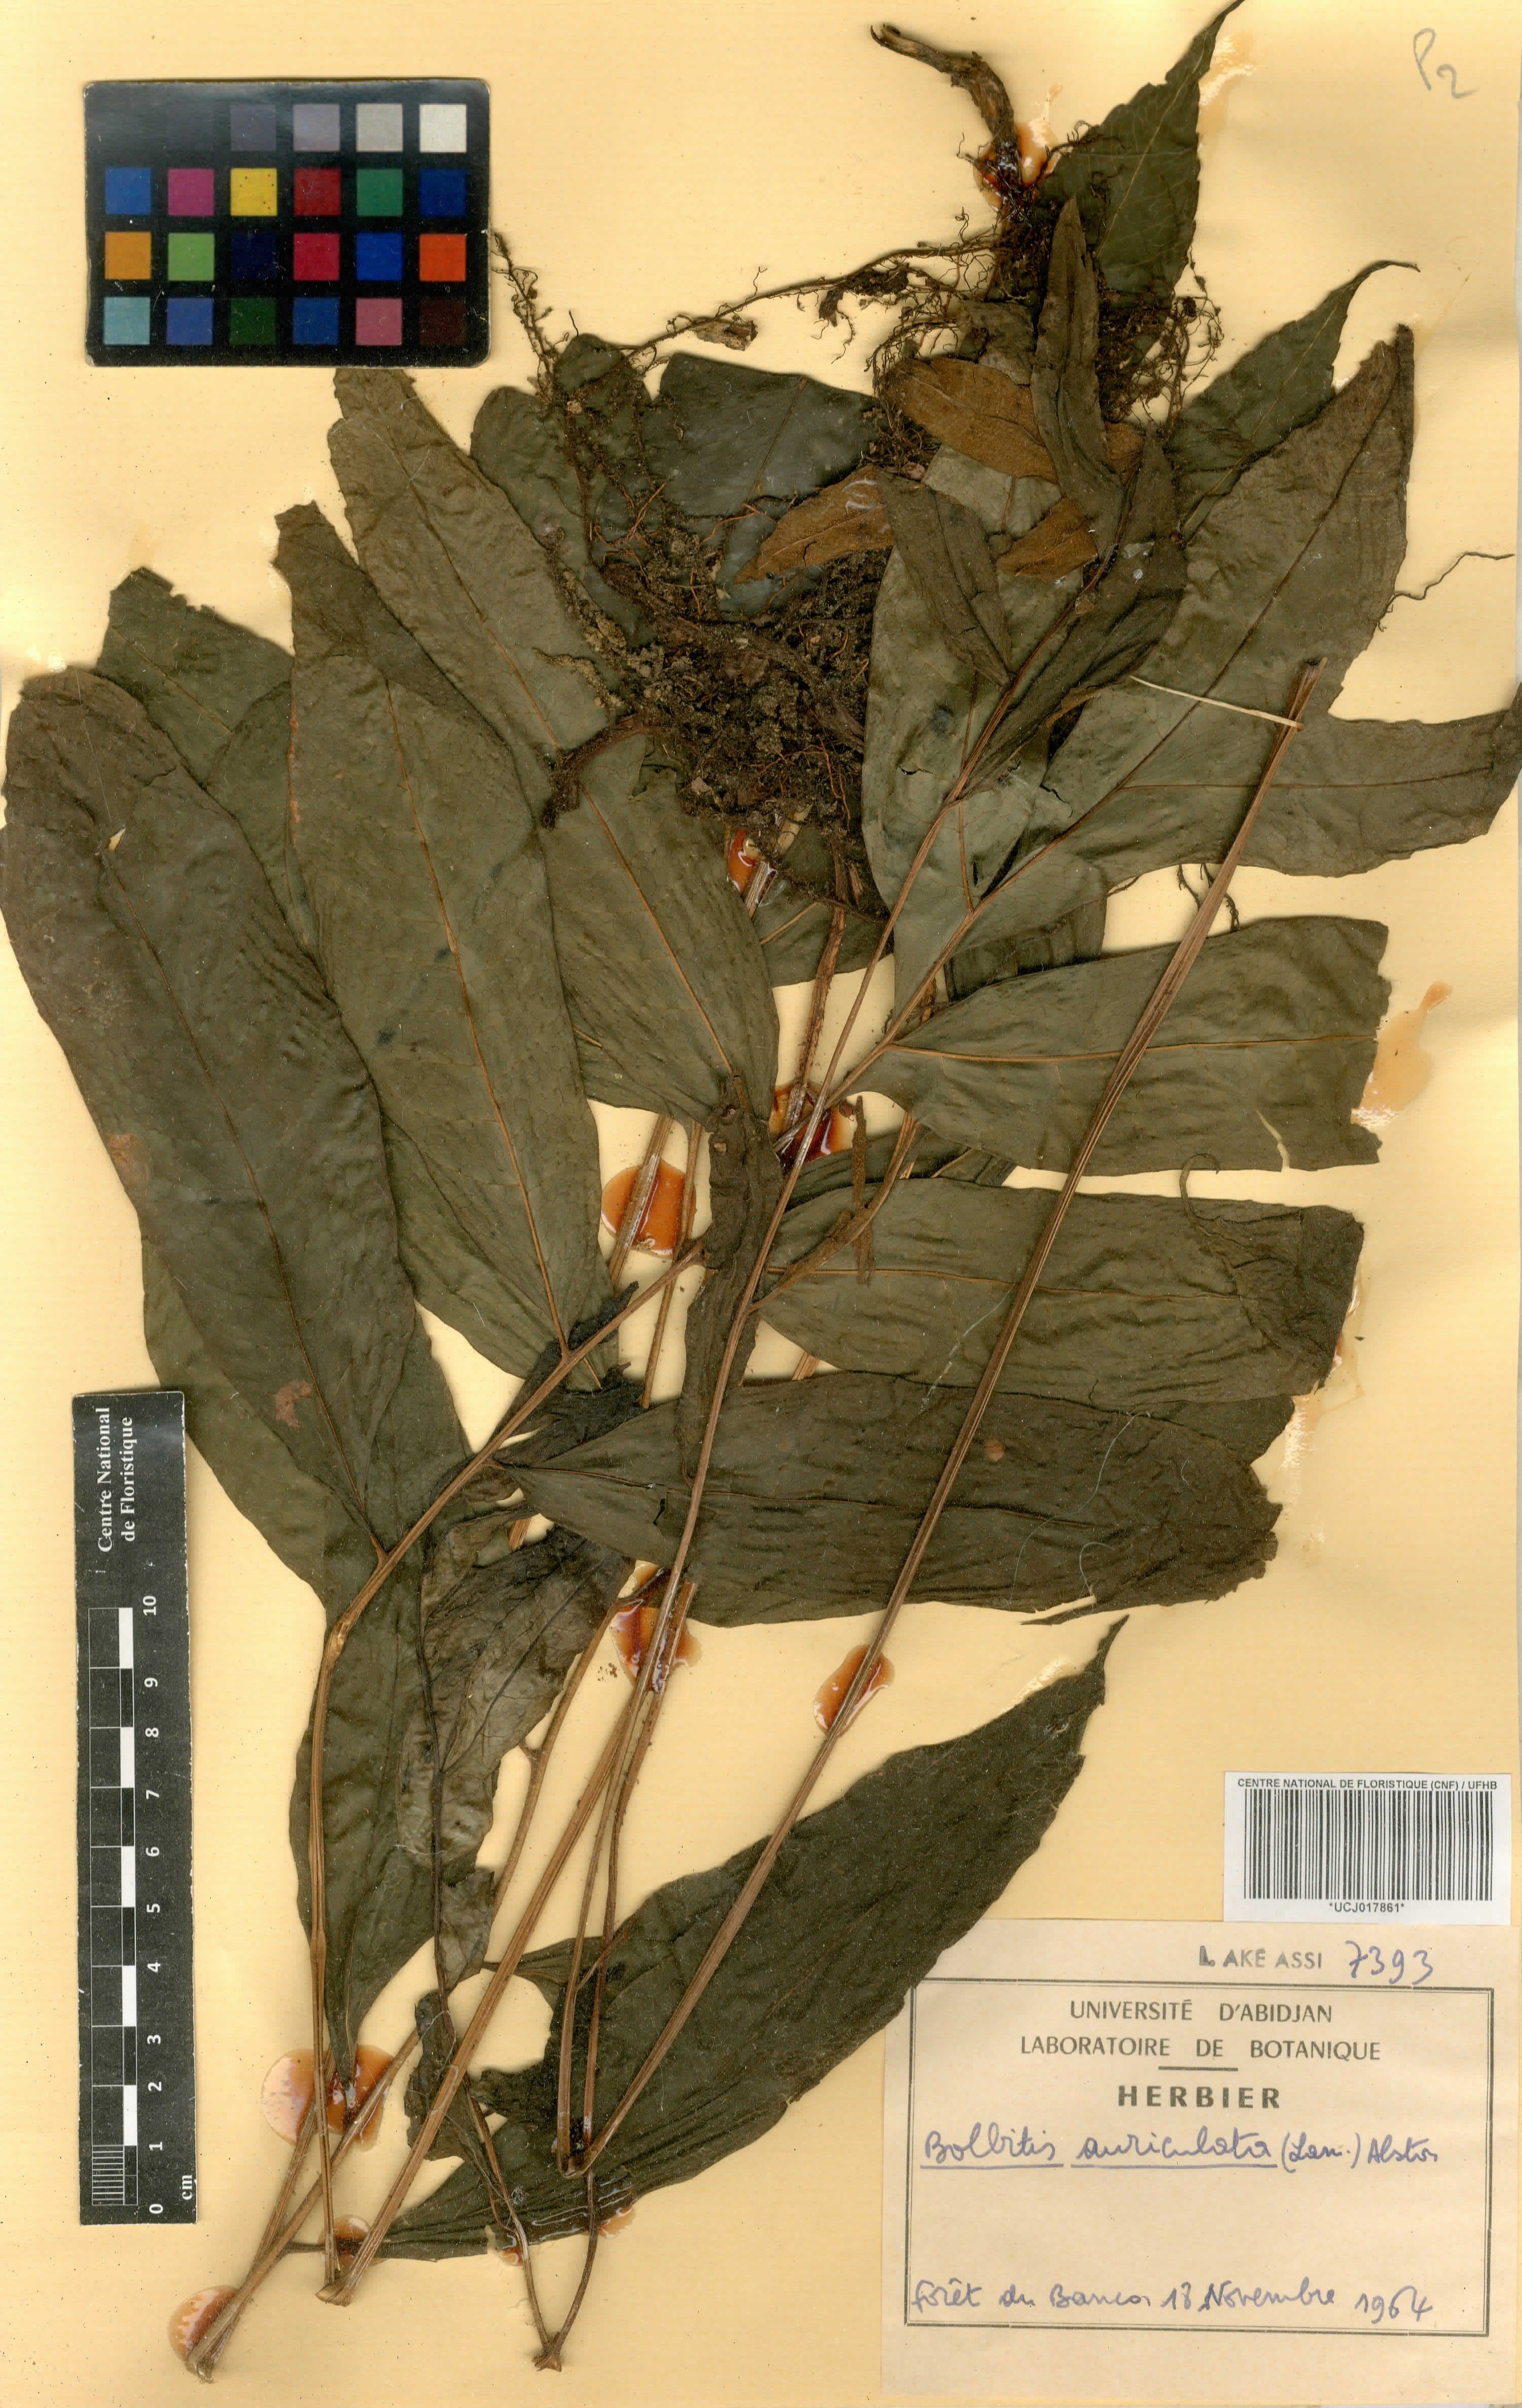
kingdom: Plantae
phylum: Tracheophyta
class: Polypodiopsida
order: Polypodiales
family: Dryopteridaceae
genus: Bolbitis
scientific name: Bolbitis auriculata
